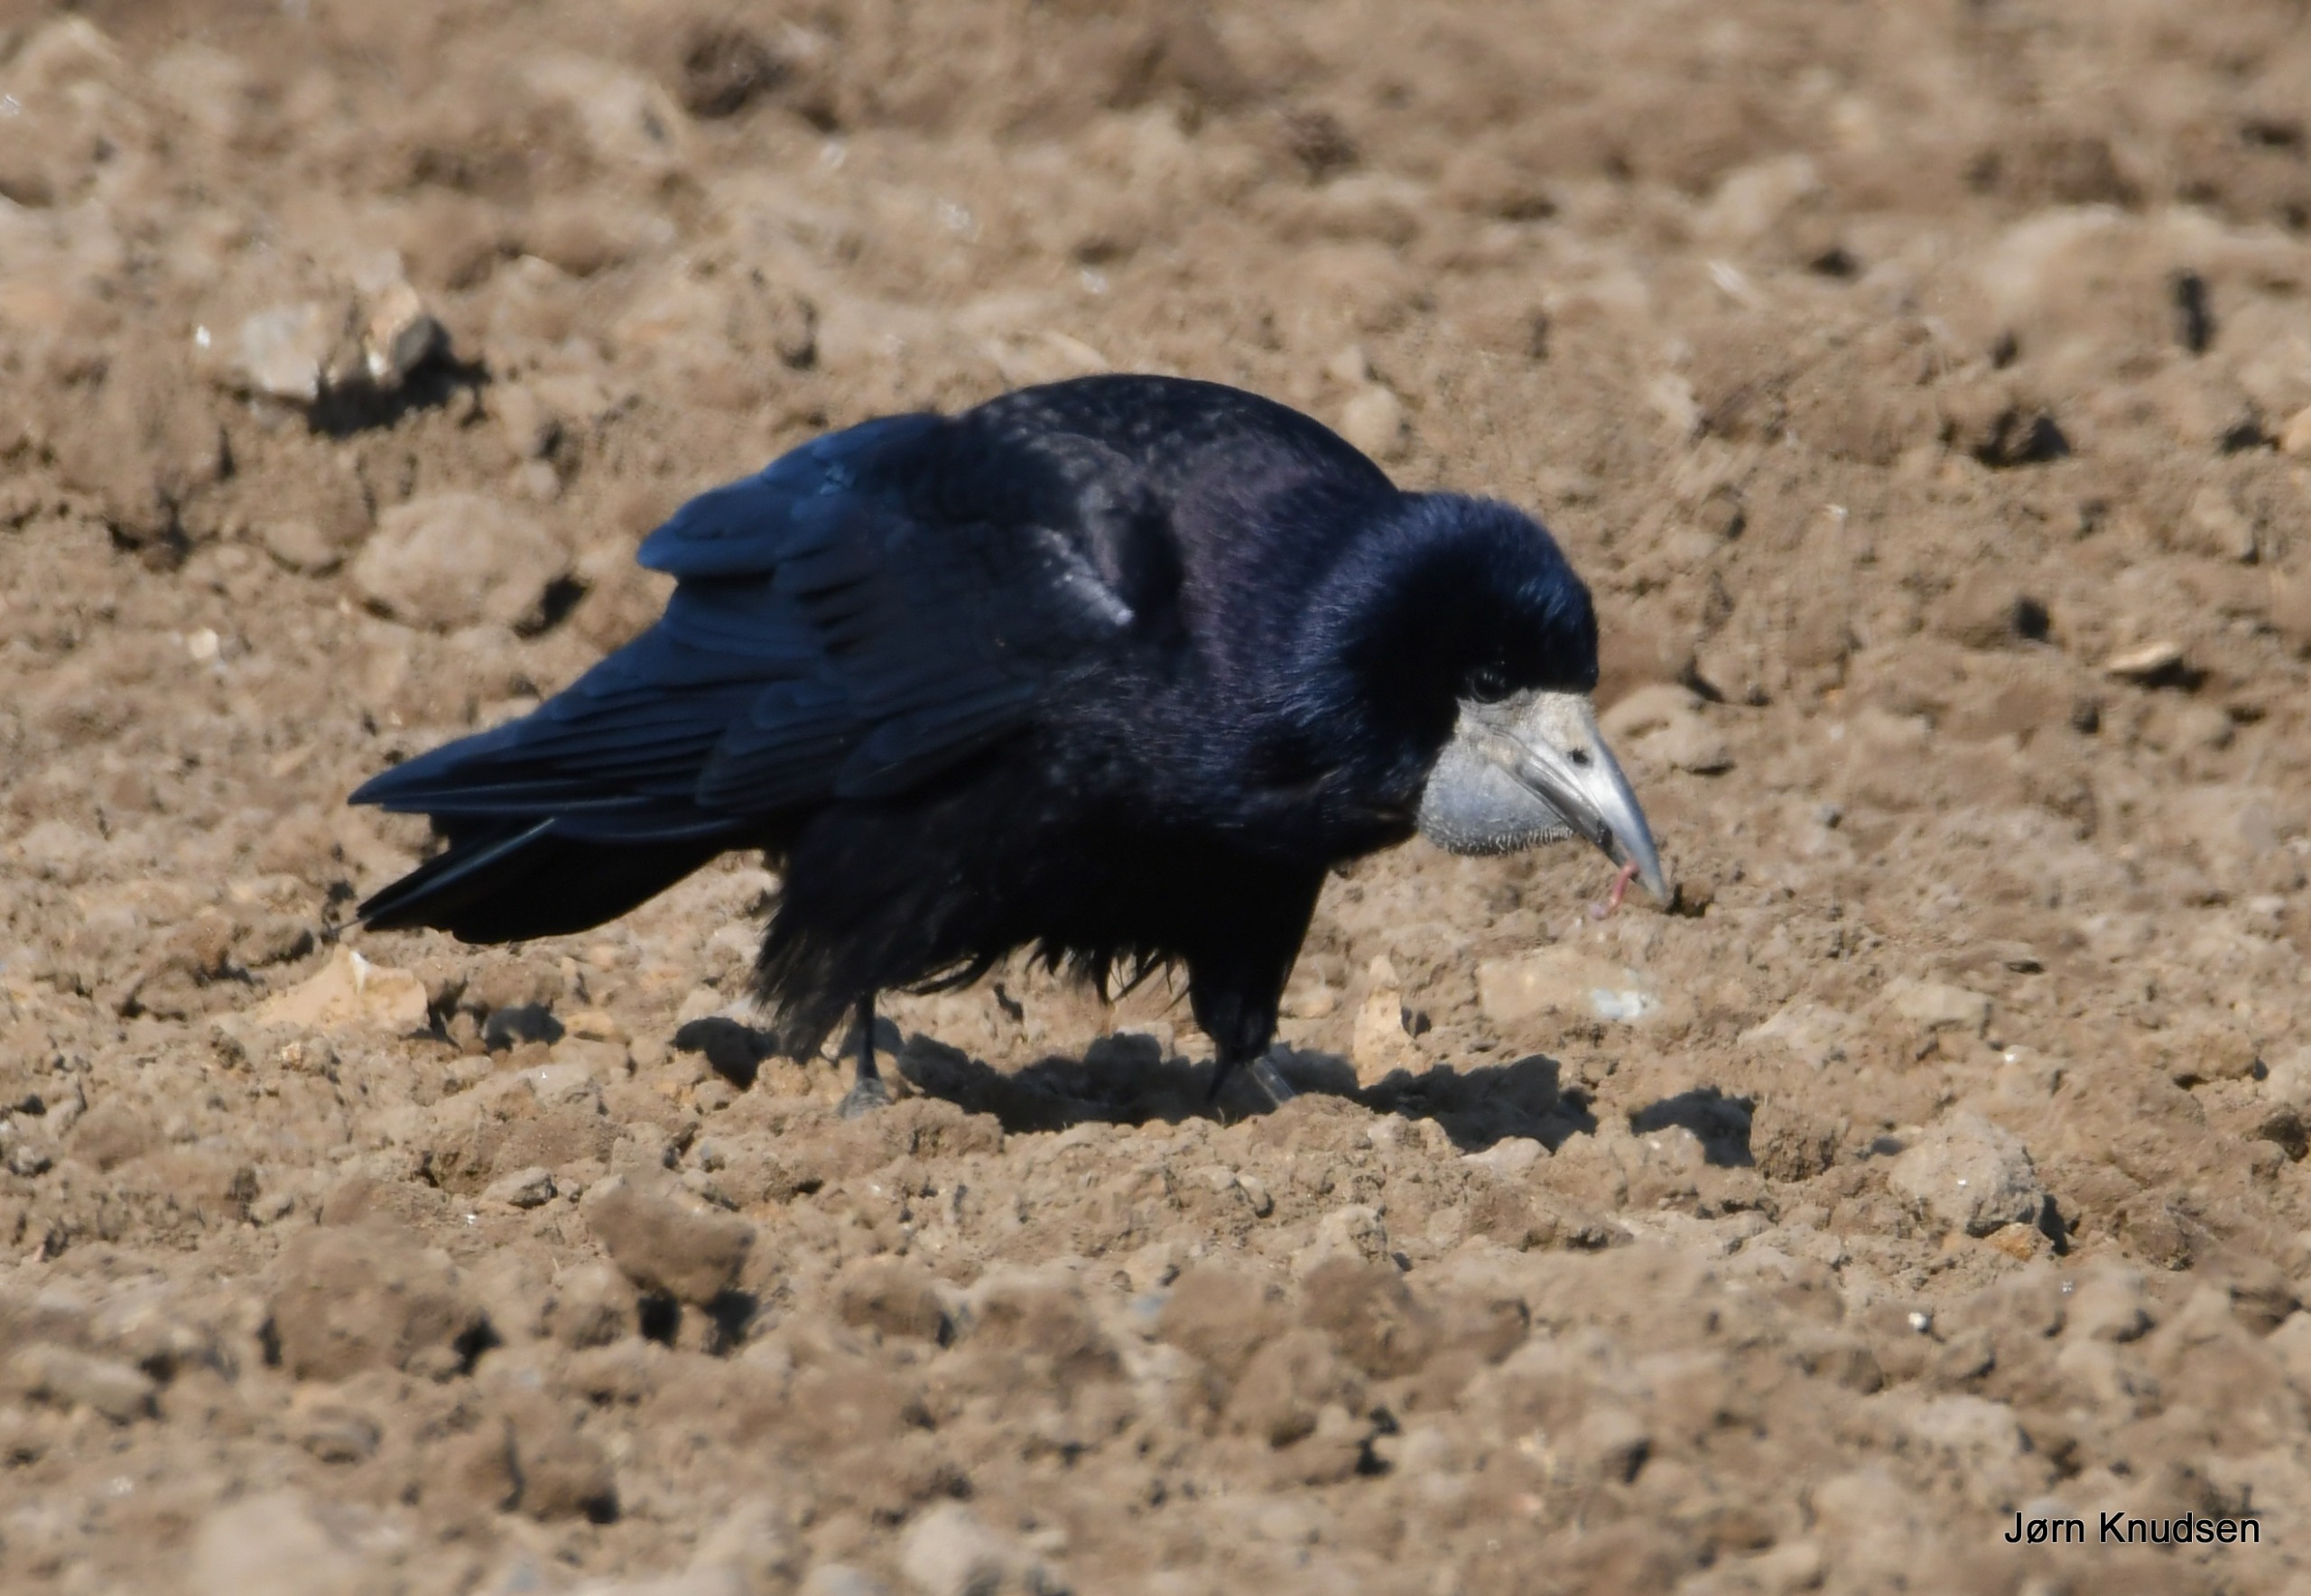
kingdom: Animalia
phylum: Chordata
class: Aves
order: Passeriformes
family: Corvidae
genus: Corvus
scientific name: Corvus frugilegus
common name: Råge
